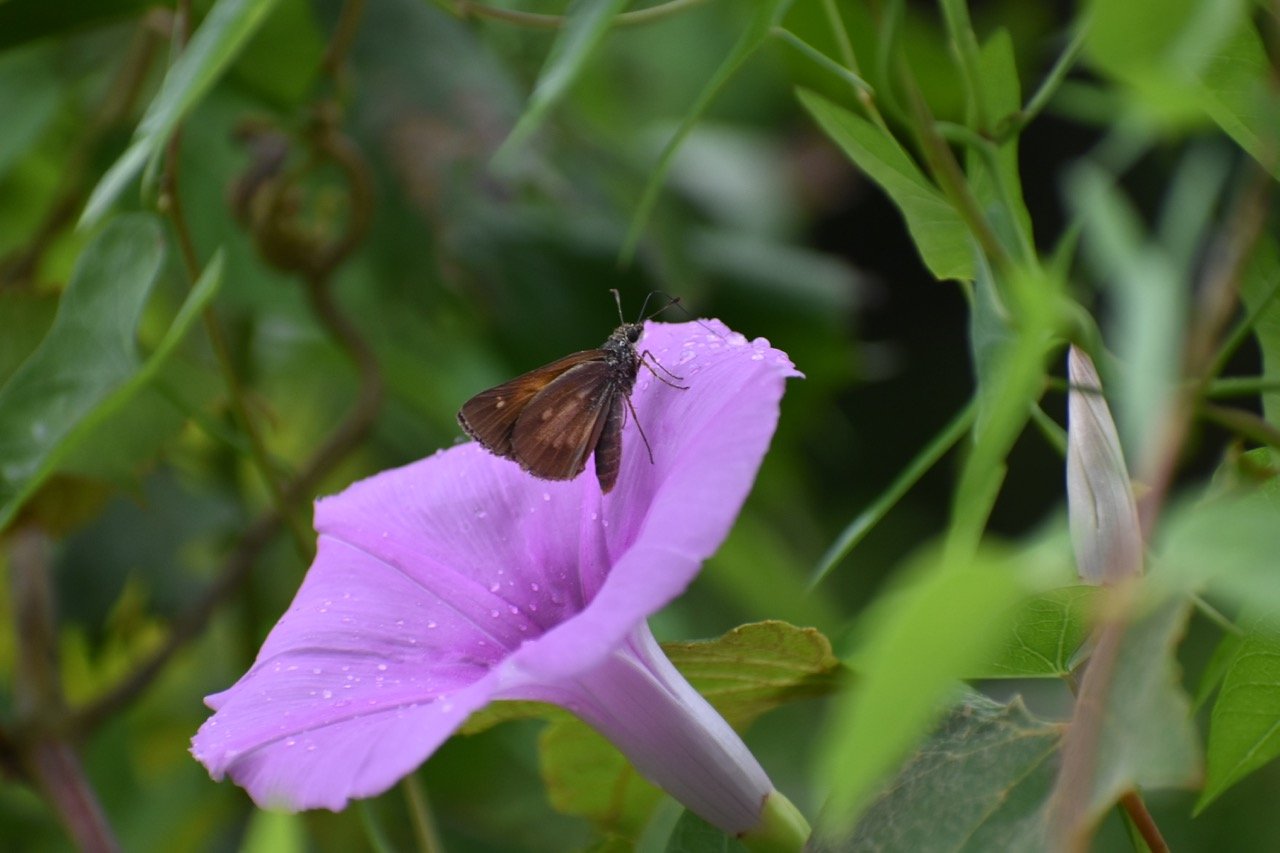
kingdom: Animalia
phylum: Arthropoda
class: Insecta
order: Lepidoptera
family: Hesperiidae
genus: Poanes
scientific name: Poanes viator
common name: Broad-winged Skipper
